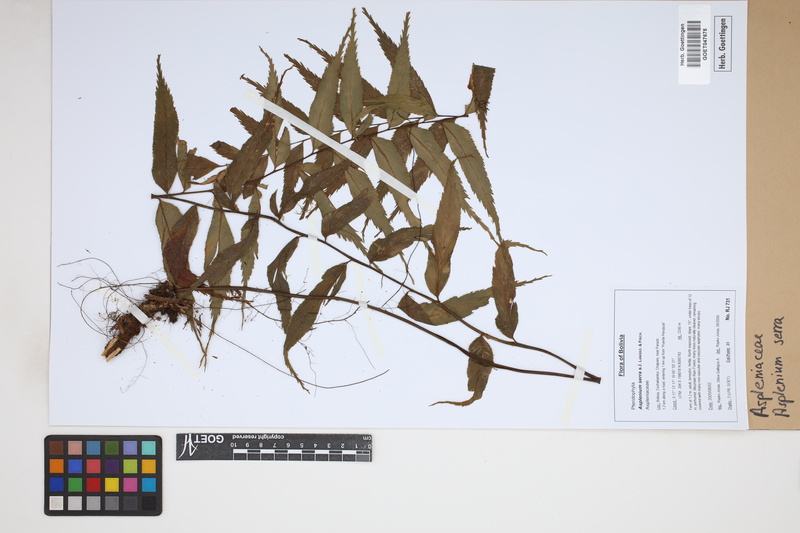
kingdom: Plantae
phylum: Tracheophyta
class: Polypodiopsida
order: Polypodiales
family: Aspleniaceae
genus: Asplenium
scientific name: Asplenium serra
